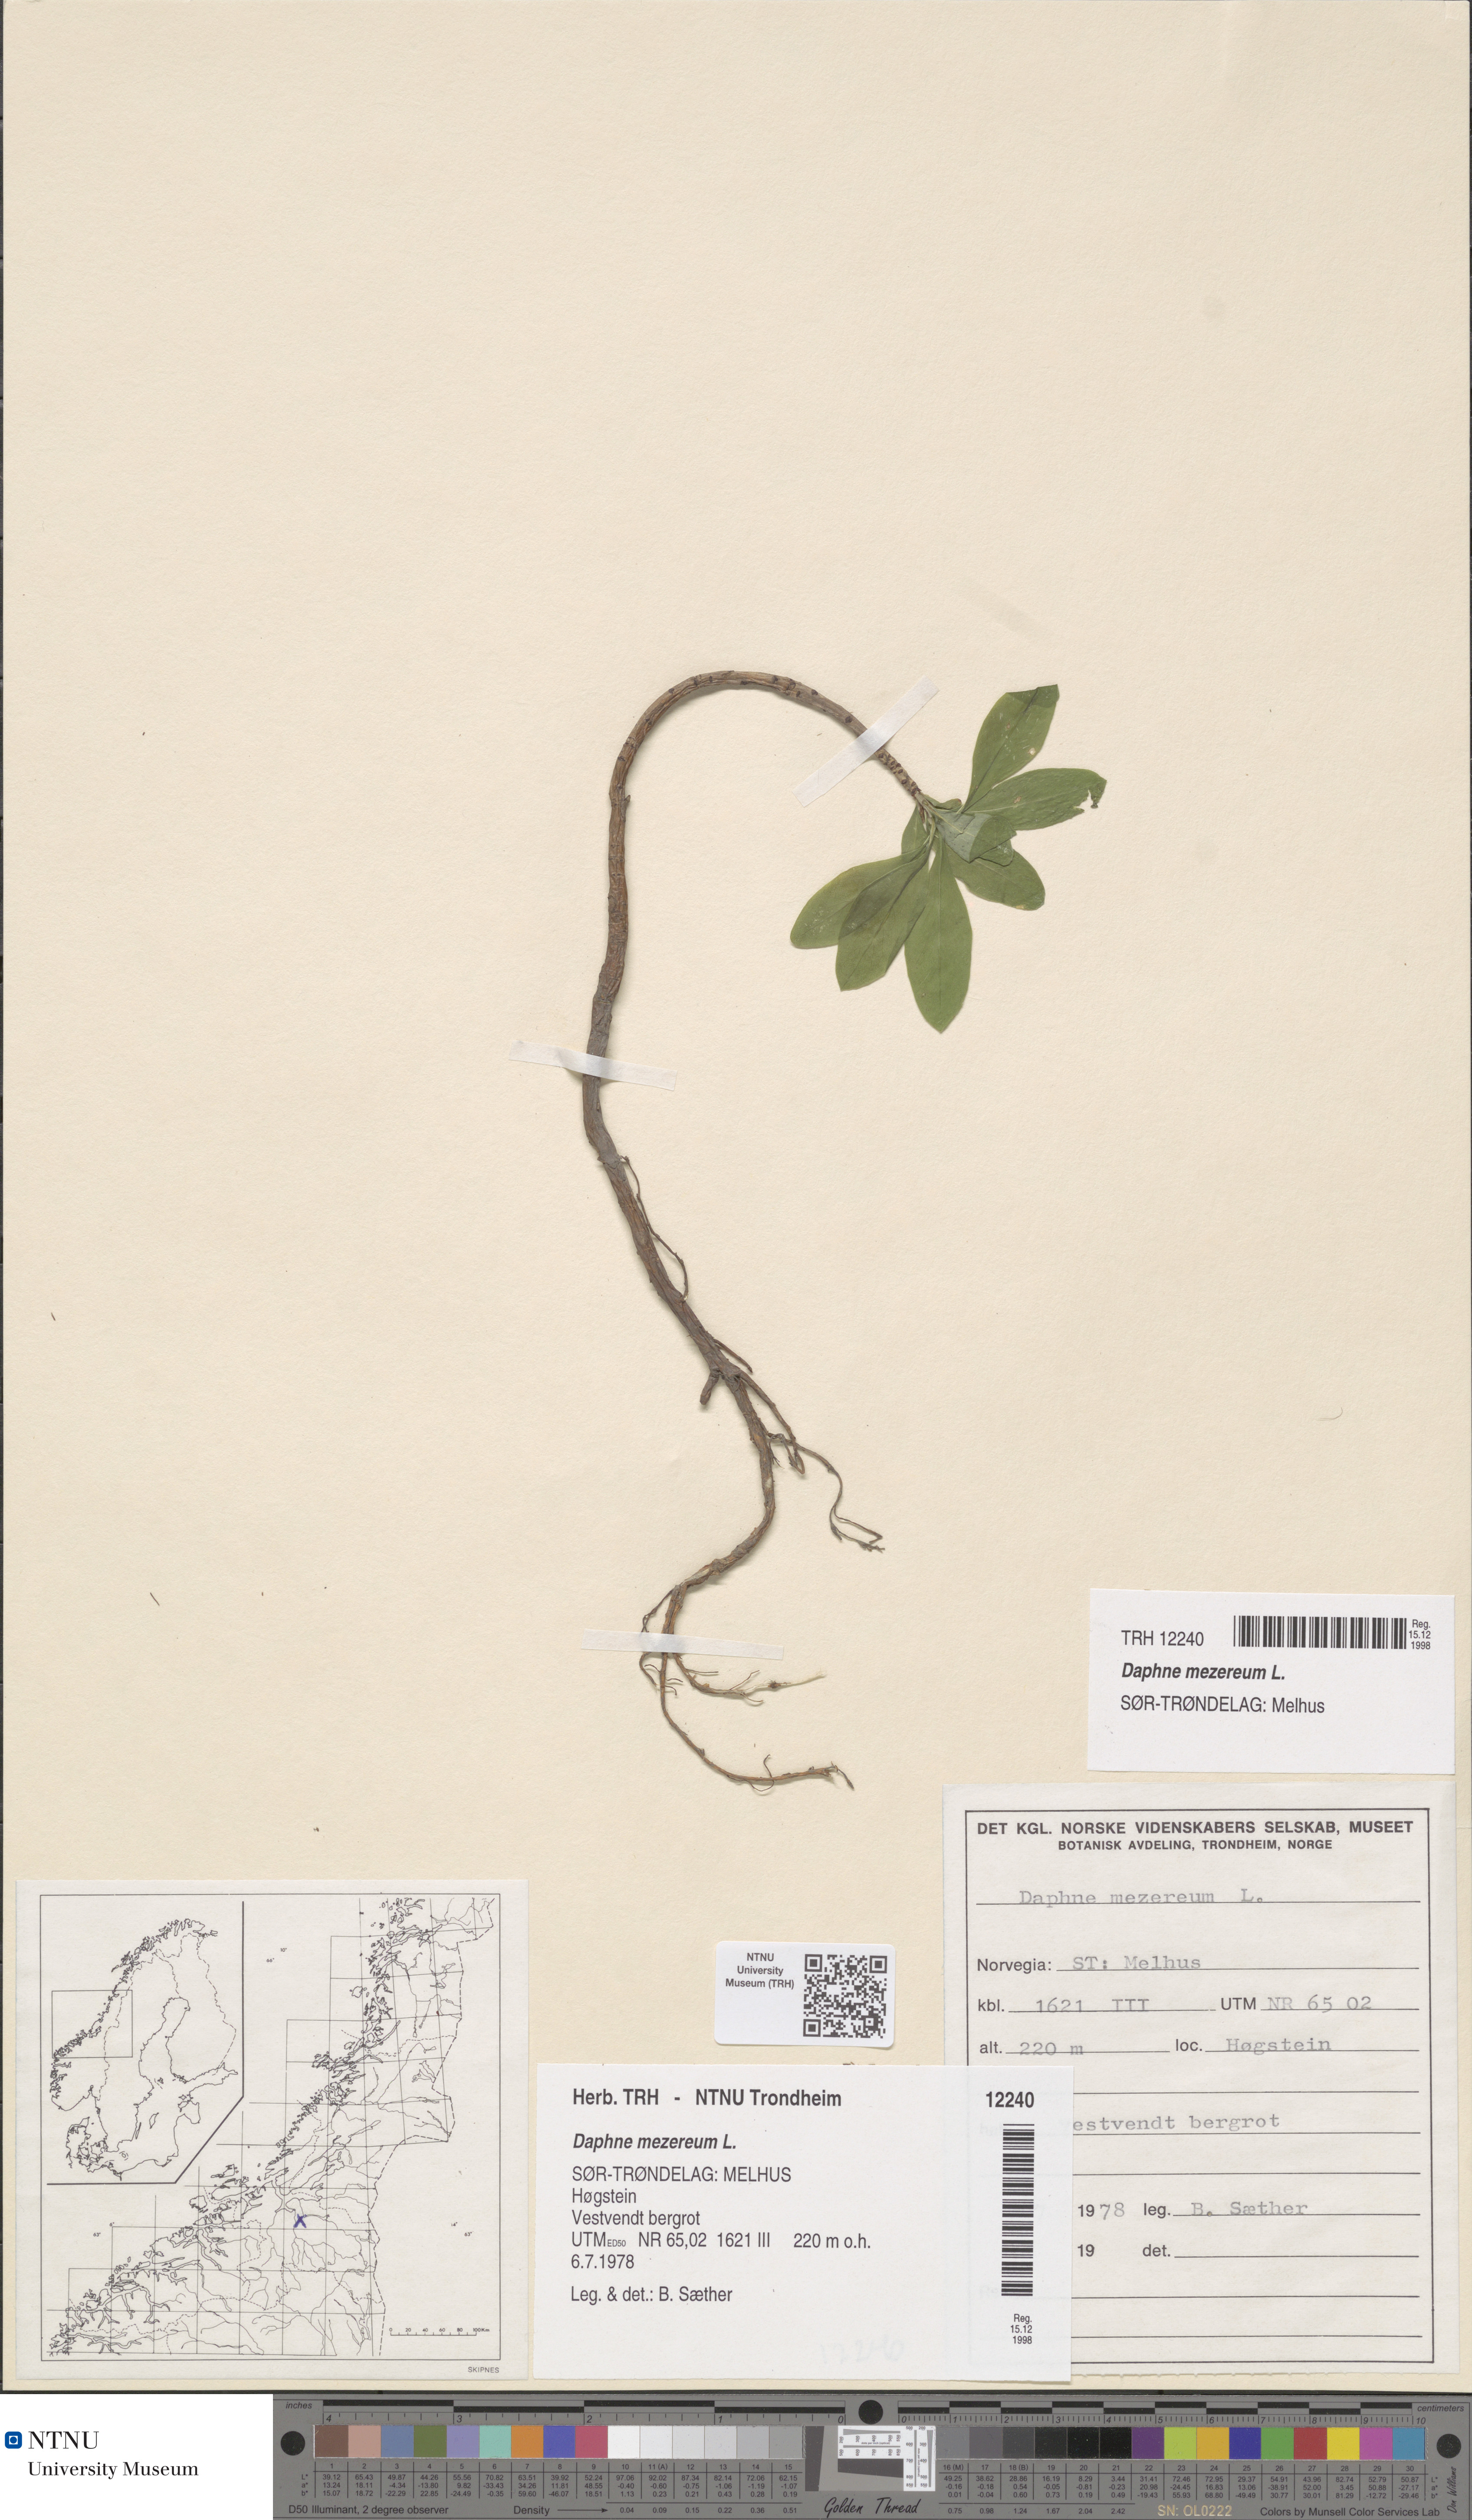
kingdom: Plantae
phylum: Tracheophyta
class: Magnoliopsida
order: Malvales
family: Thymelaeaceae
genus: Daphne
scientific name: Daphne mezereum
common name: Mezereon
